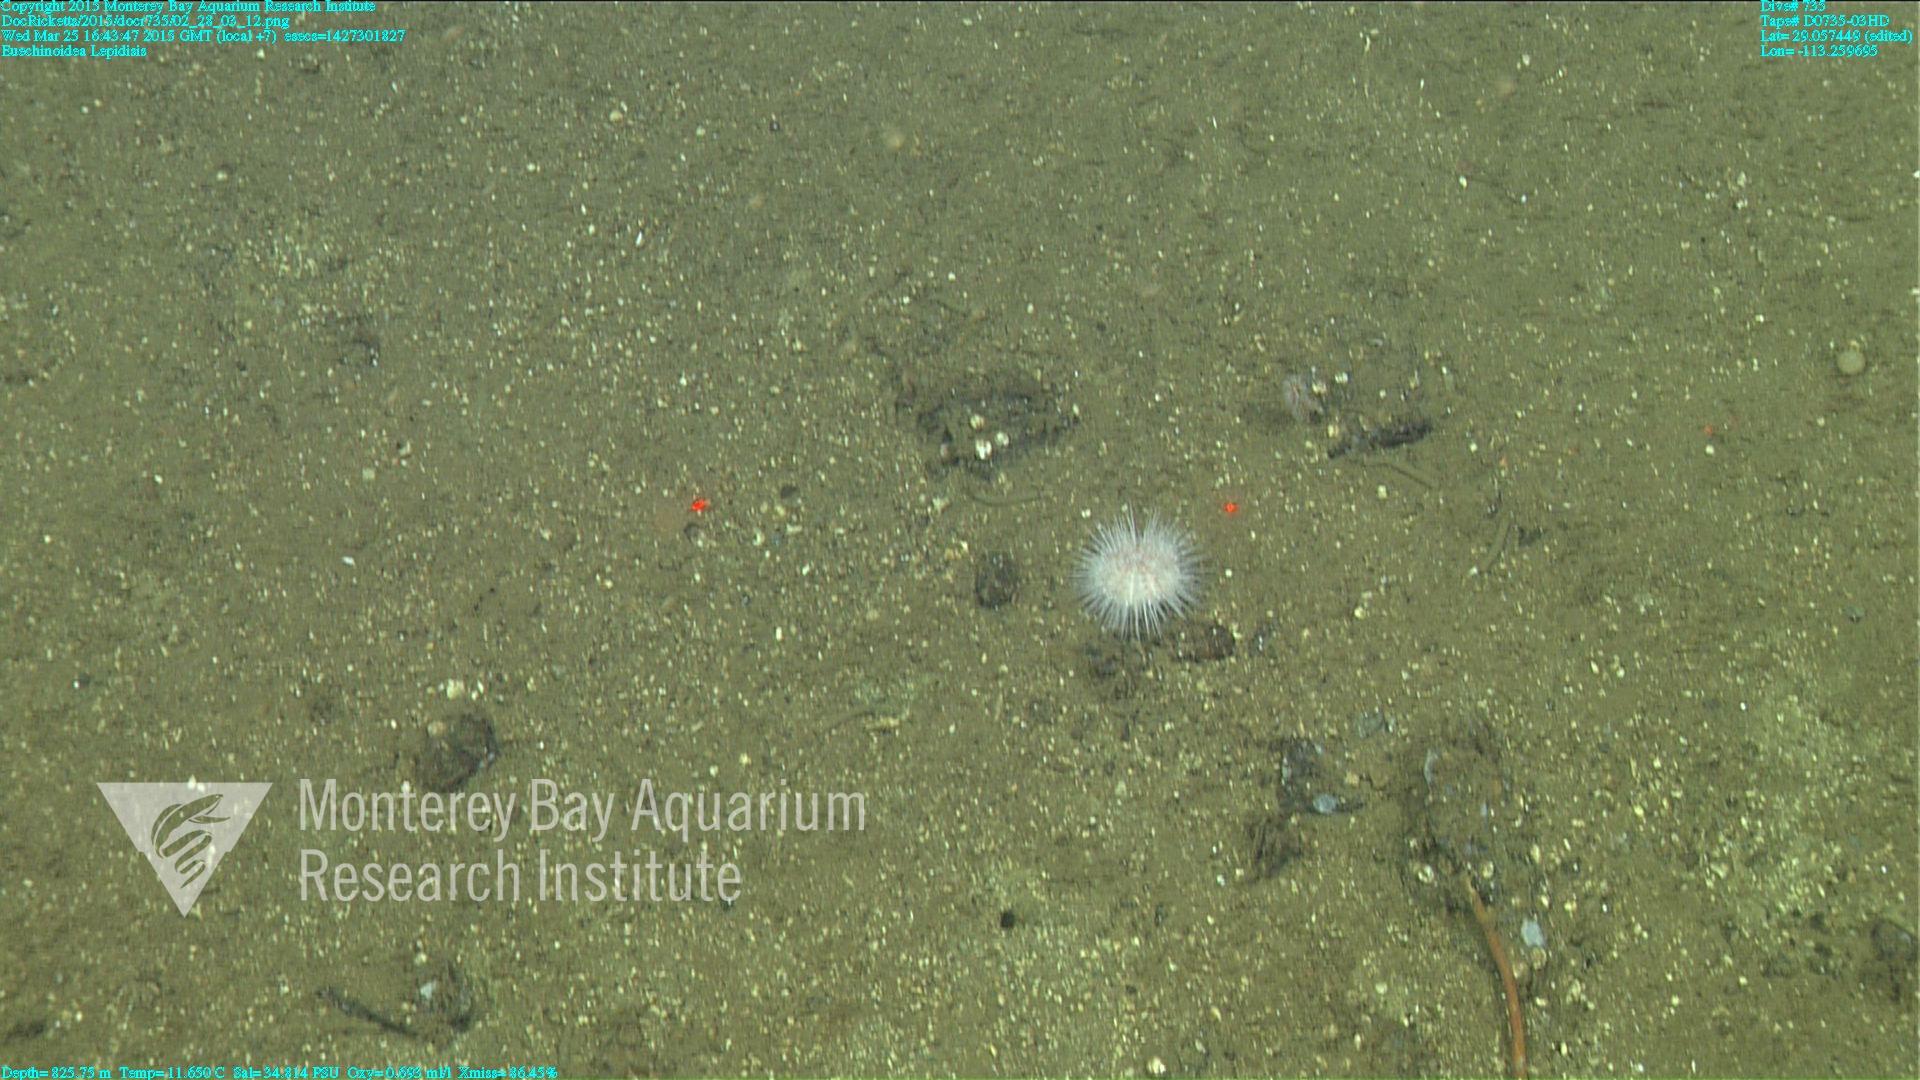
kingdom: Animalia
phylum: Cnidaria
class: Anthozoa
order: Scleralcyonacea
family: Keratoisididae
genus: Lepidisis
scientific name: Lepidisis
